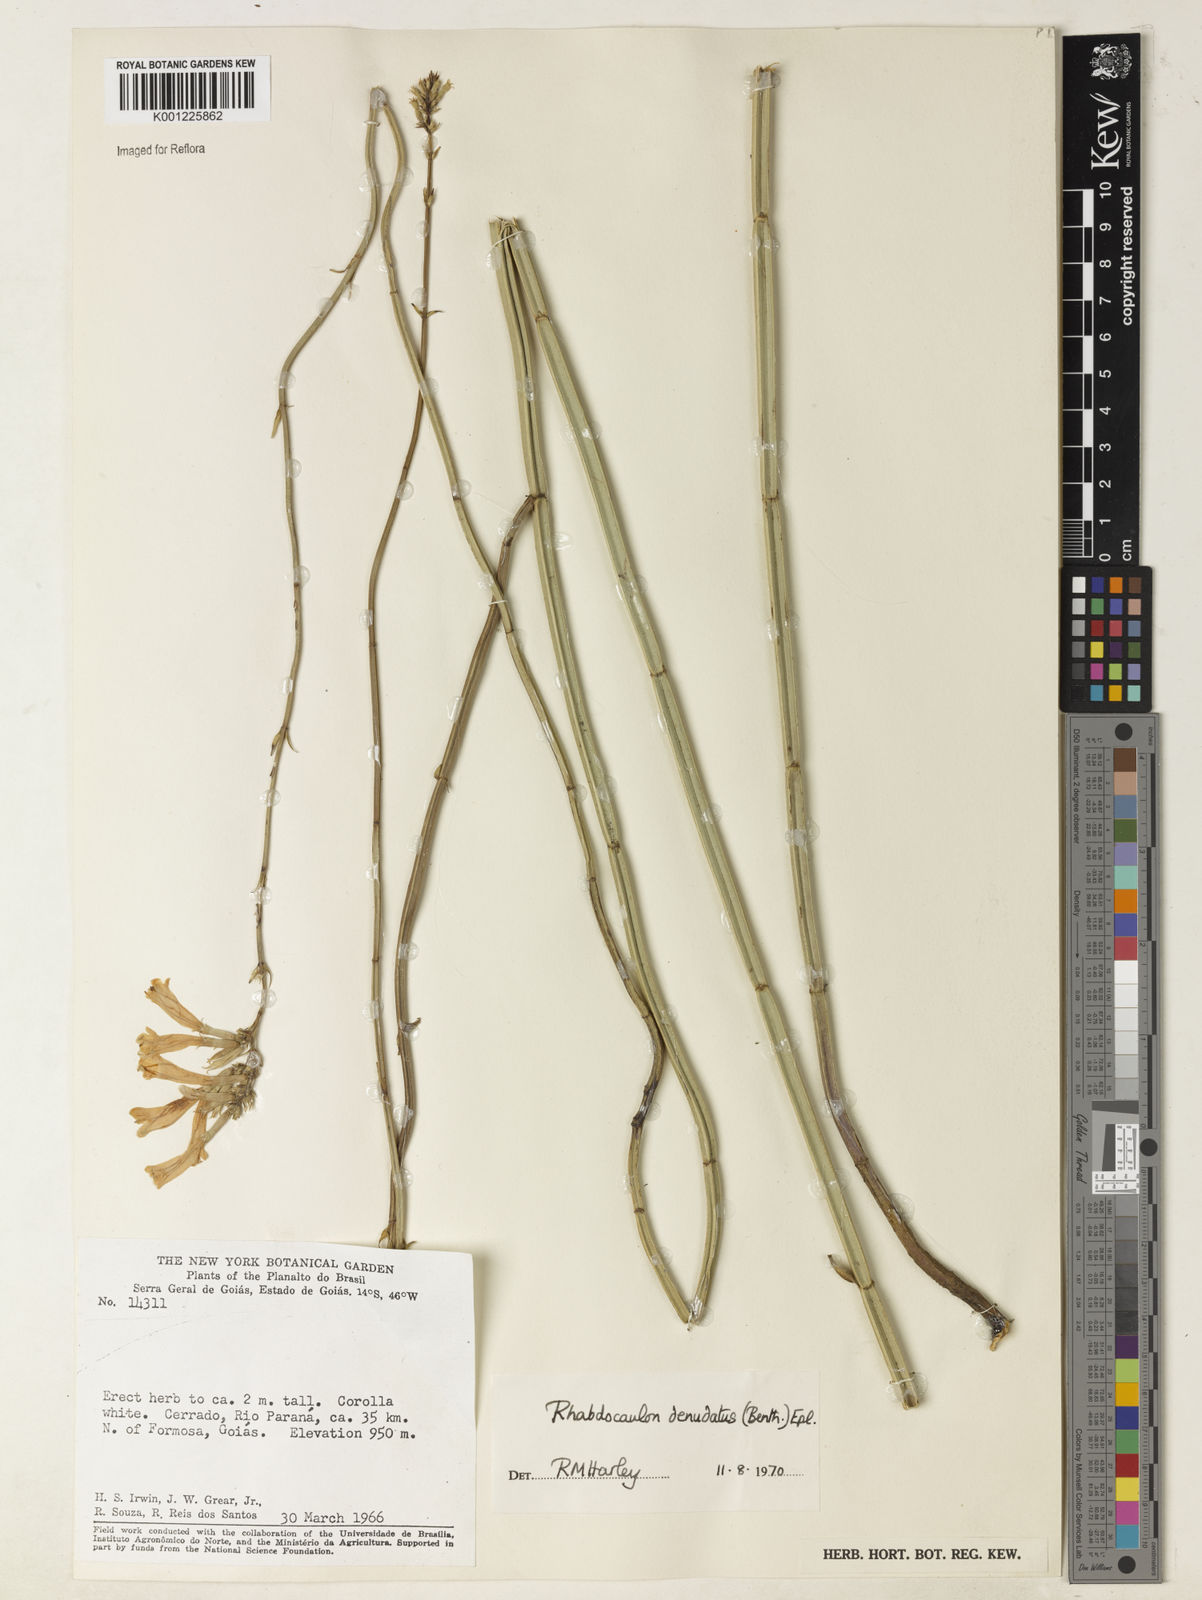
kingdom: Plantae
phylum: Tracheophyta
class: Magnoliopsida
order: Lamiales
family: Lamiaceae
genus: Rhabdocaulon
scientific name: Rhabdocaulon denudatum
